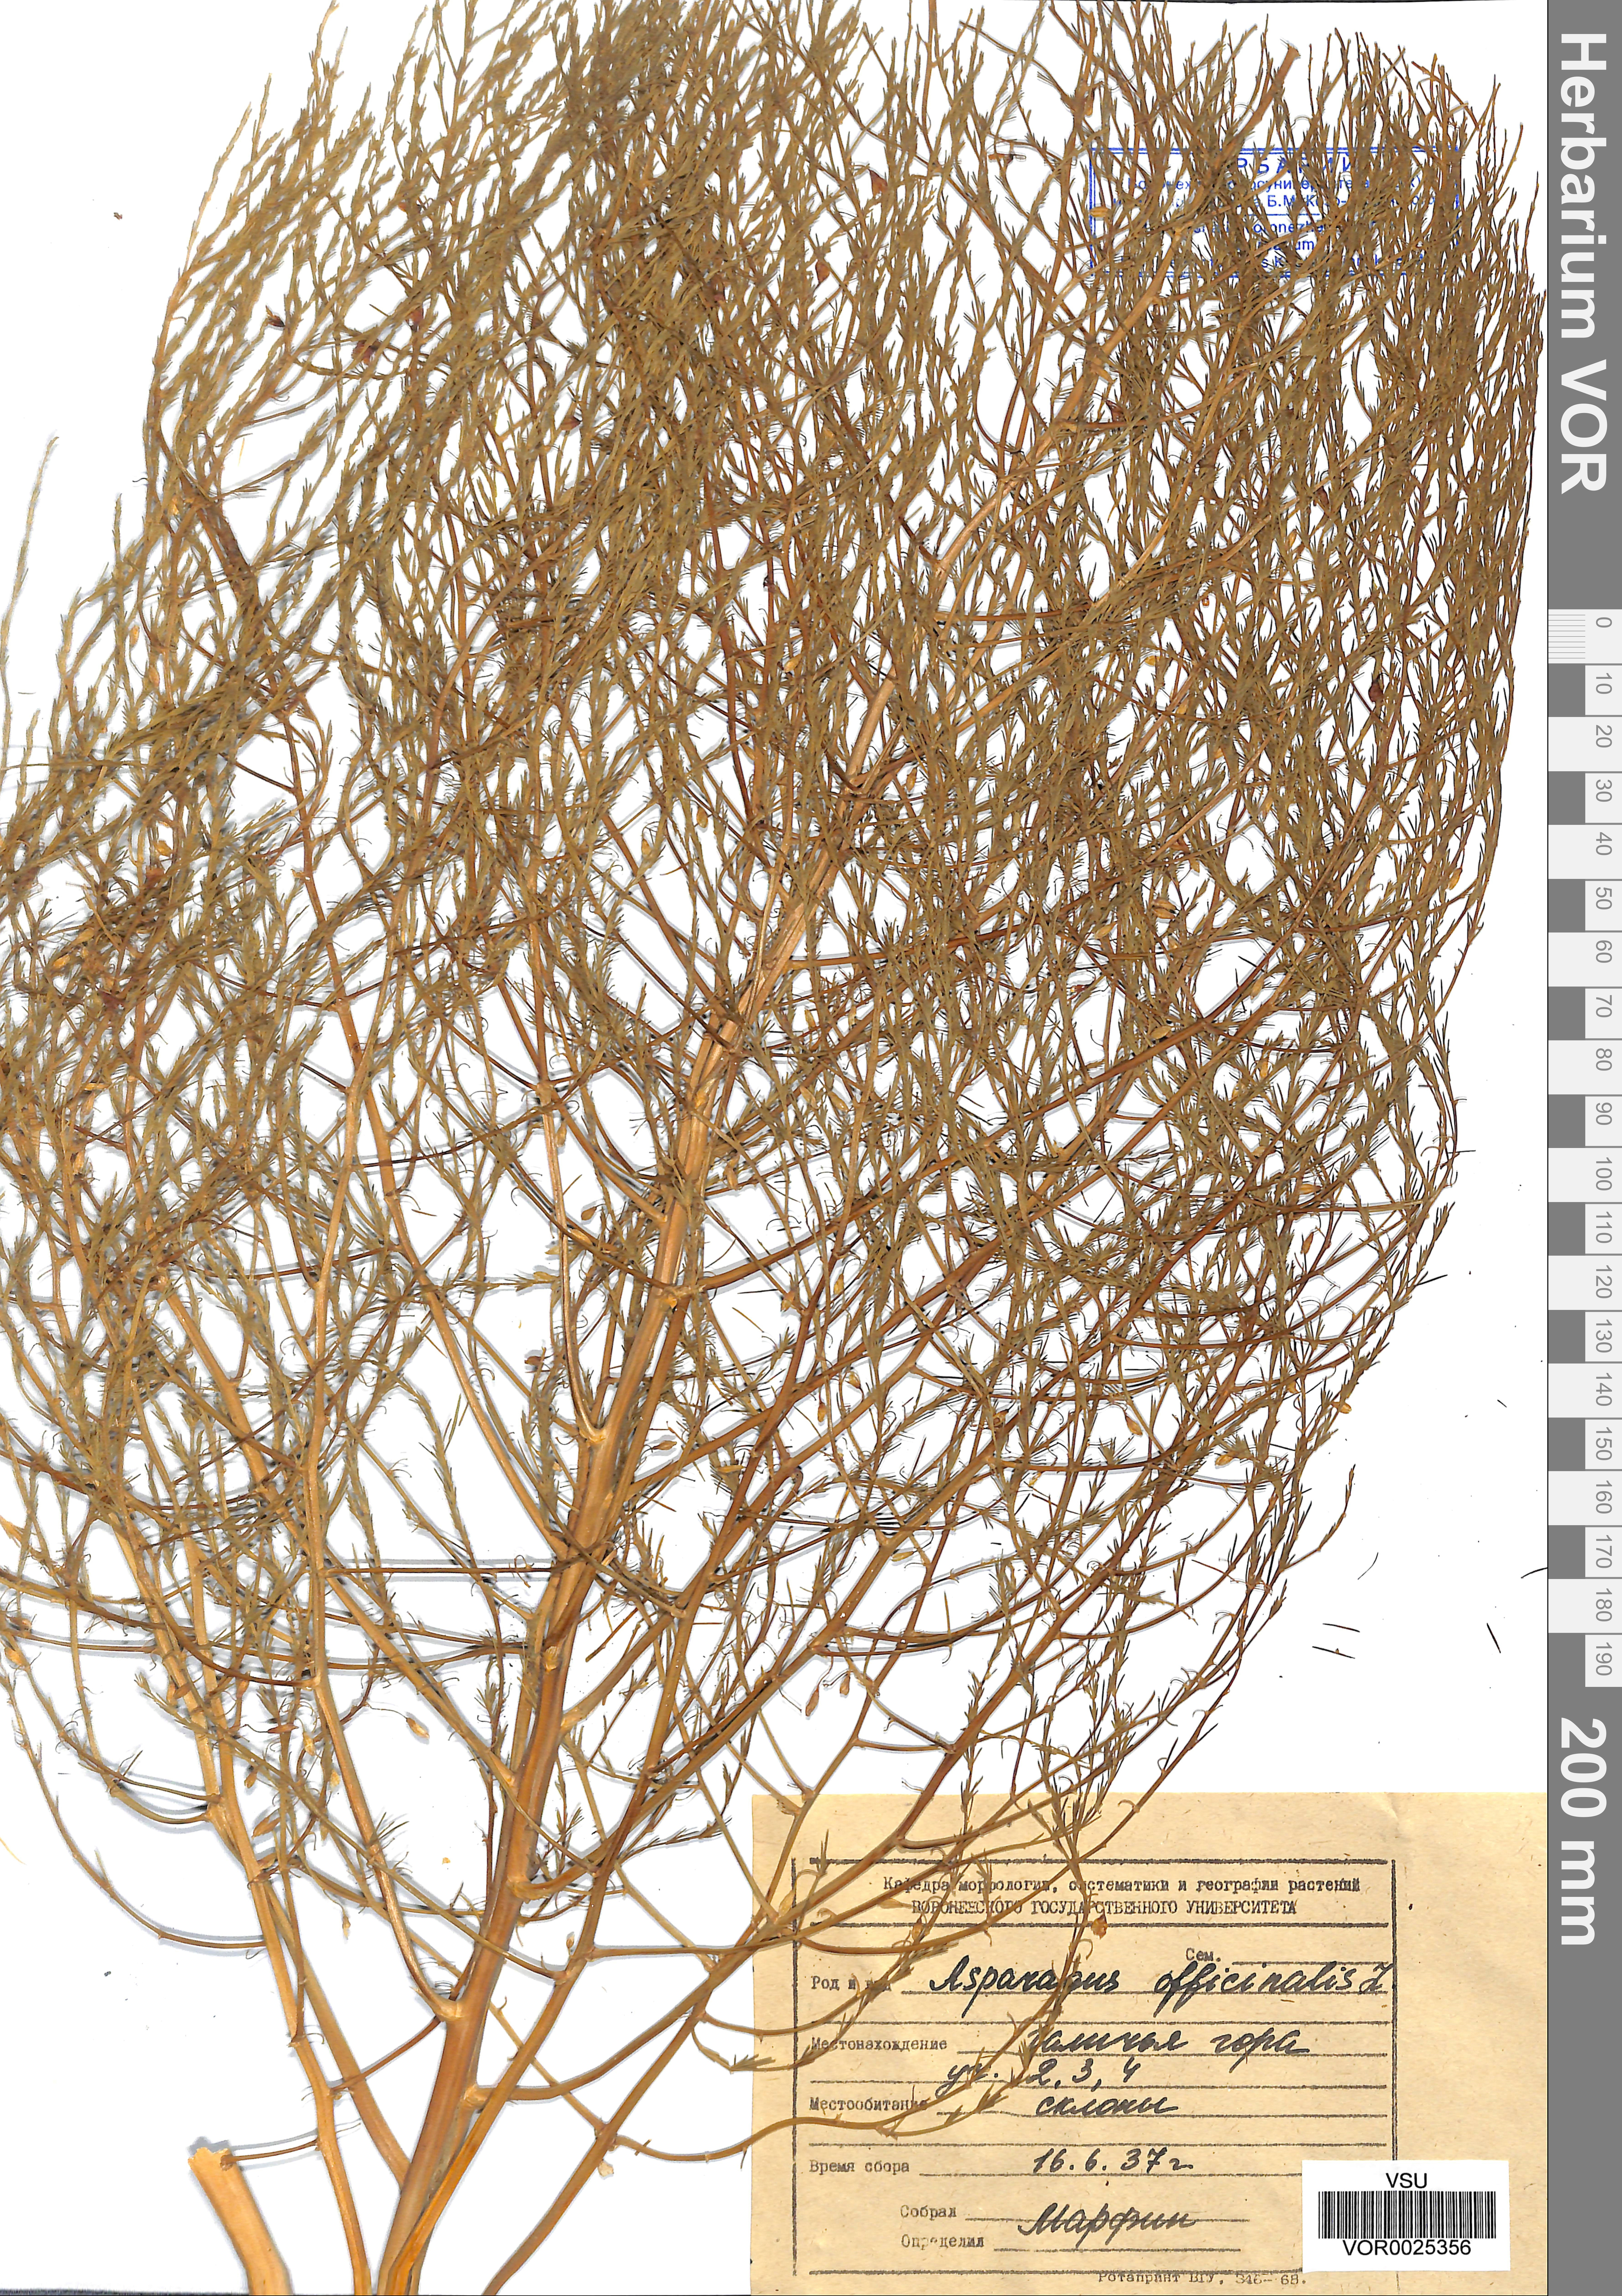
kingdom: Plantae
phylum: Tracheophyta
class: Liliopsida
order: Asparagales
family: Asparagaceae
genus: Asparagus
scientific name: Asparagus officinalis
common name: Garden asparagus
